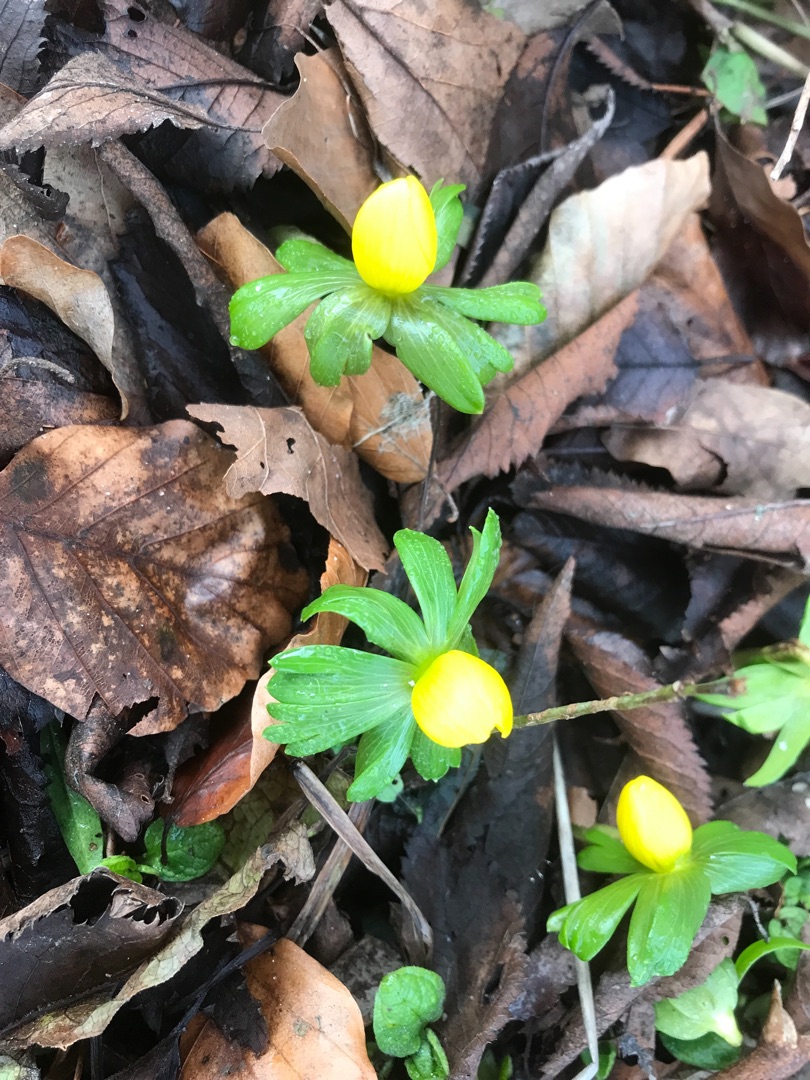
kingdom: Plantae
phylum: Tracheophyta
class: Magnoliopsida
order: Ranunculales
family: Ranunculaceae
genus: Eranthis
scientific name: Eranthis hyemalis
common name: Erantis
